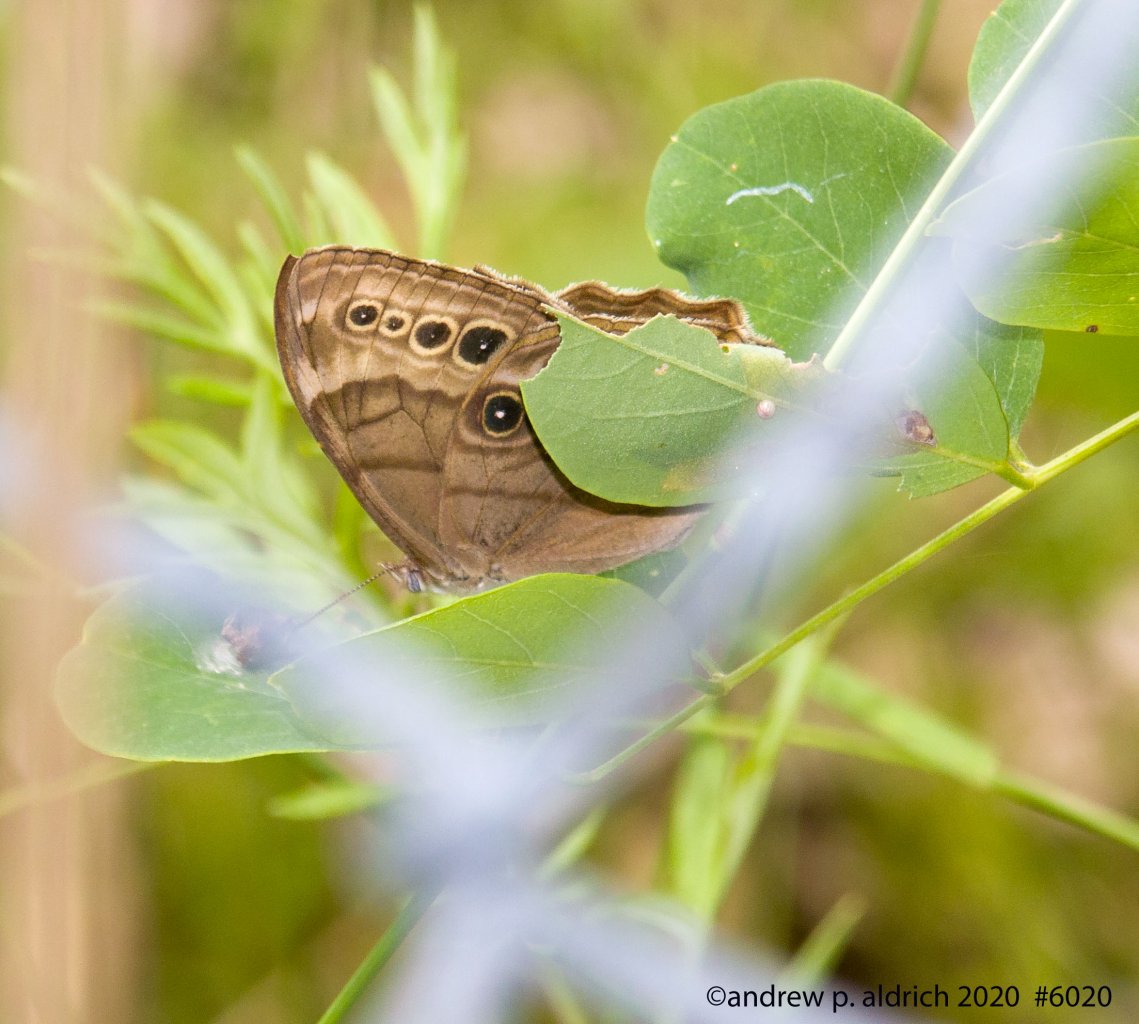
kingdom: Animalia
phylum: Arthropoda
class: Insecta
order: Lepidoptera
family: Nymphalidae
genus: Lethe
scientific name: Lethe anthedon
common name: Northern Pearly-Eye
